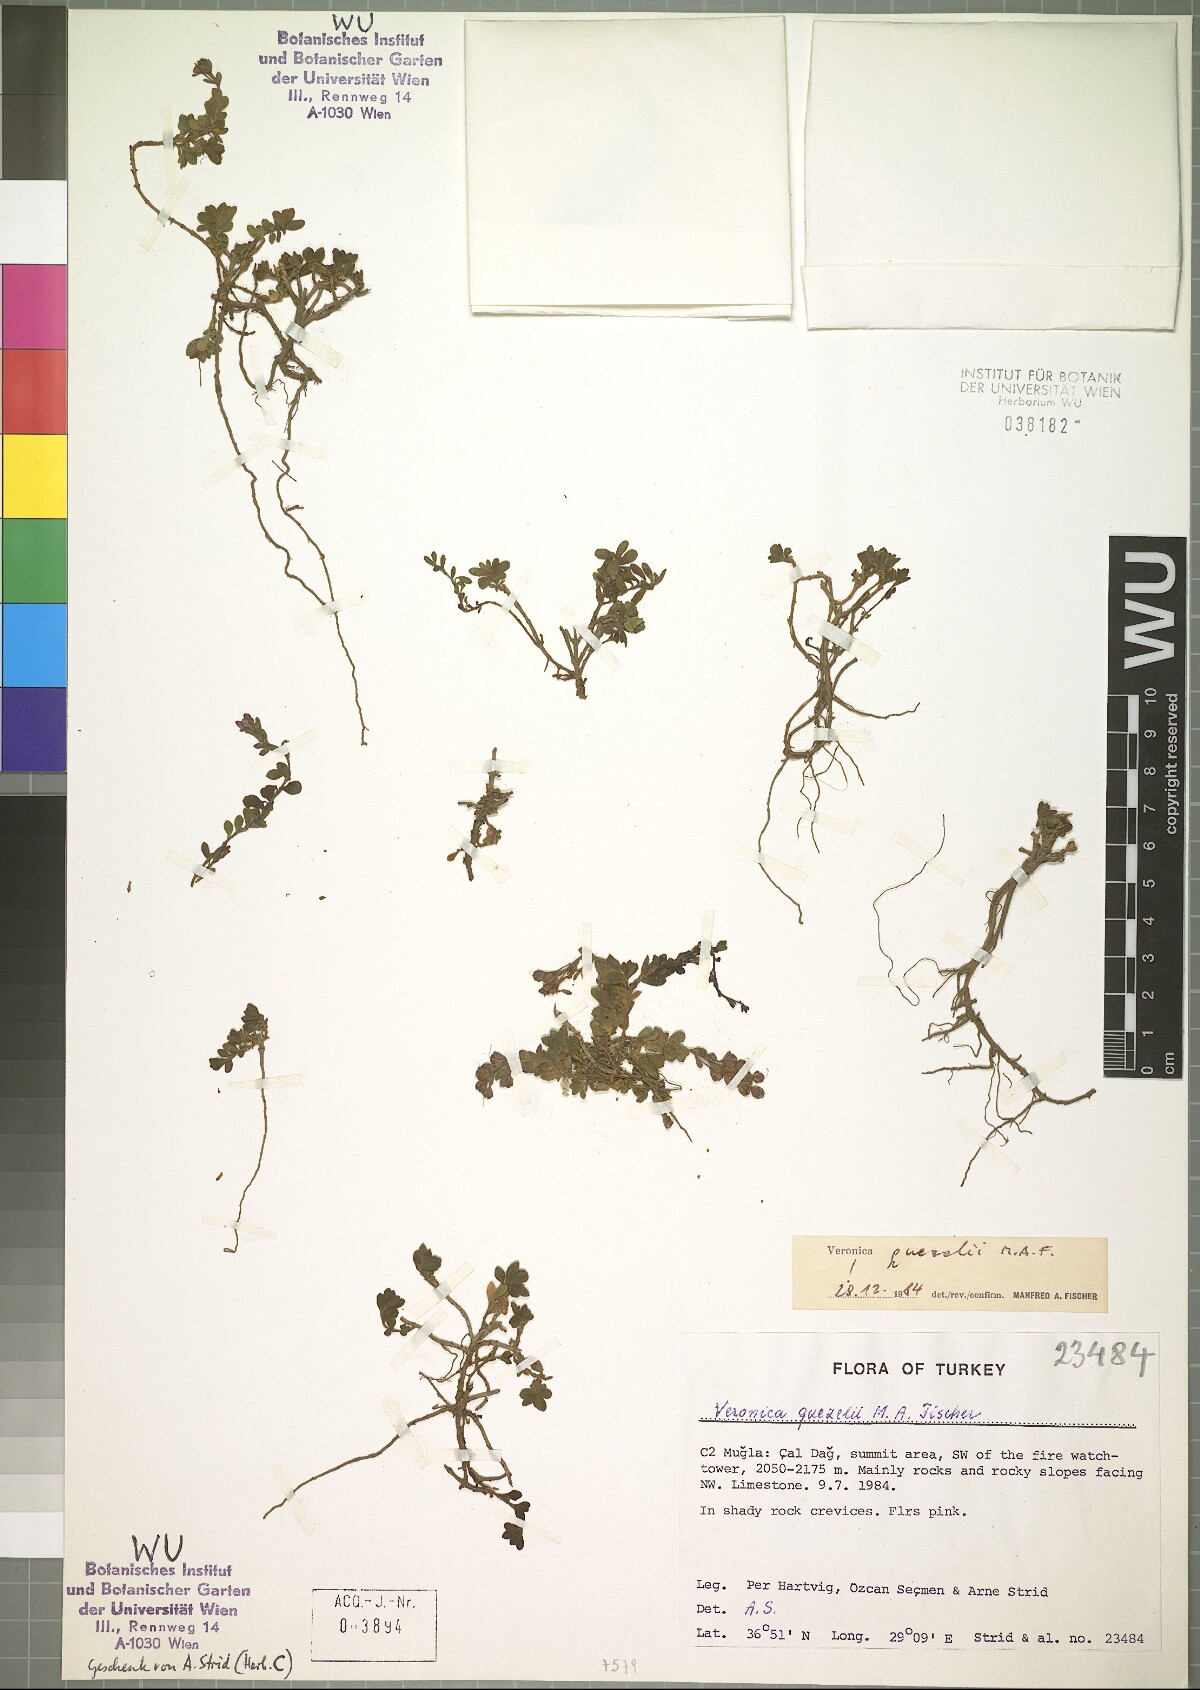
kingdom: Plantae
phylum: Tracheophyta
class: Magnoliopsida
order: Lamiales
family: Plantaginaceae
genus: Veronica
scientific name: Veronica quezelii
